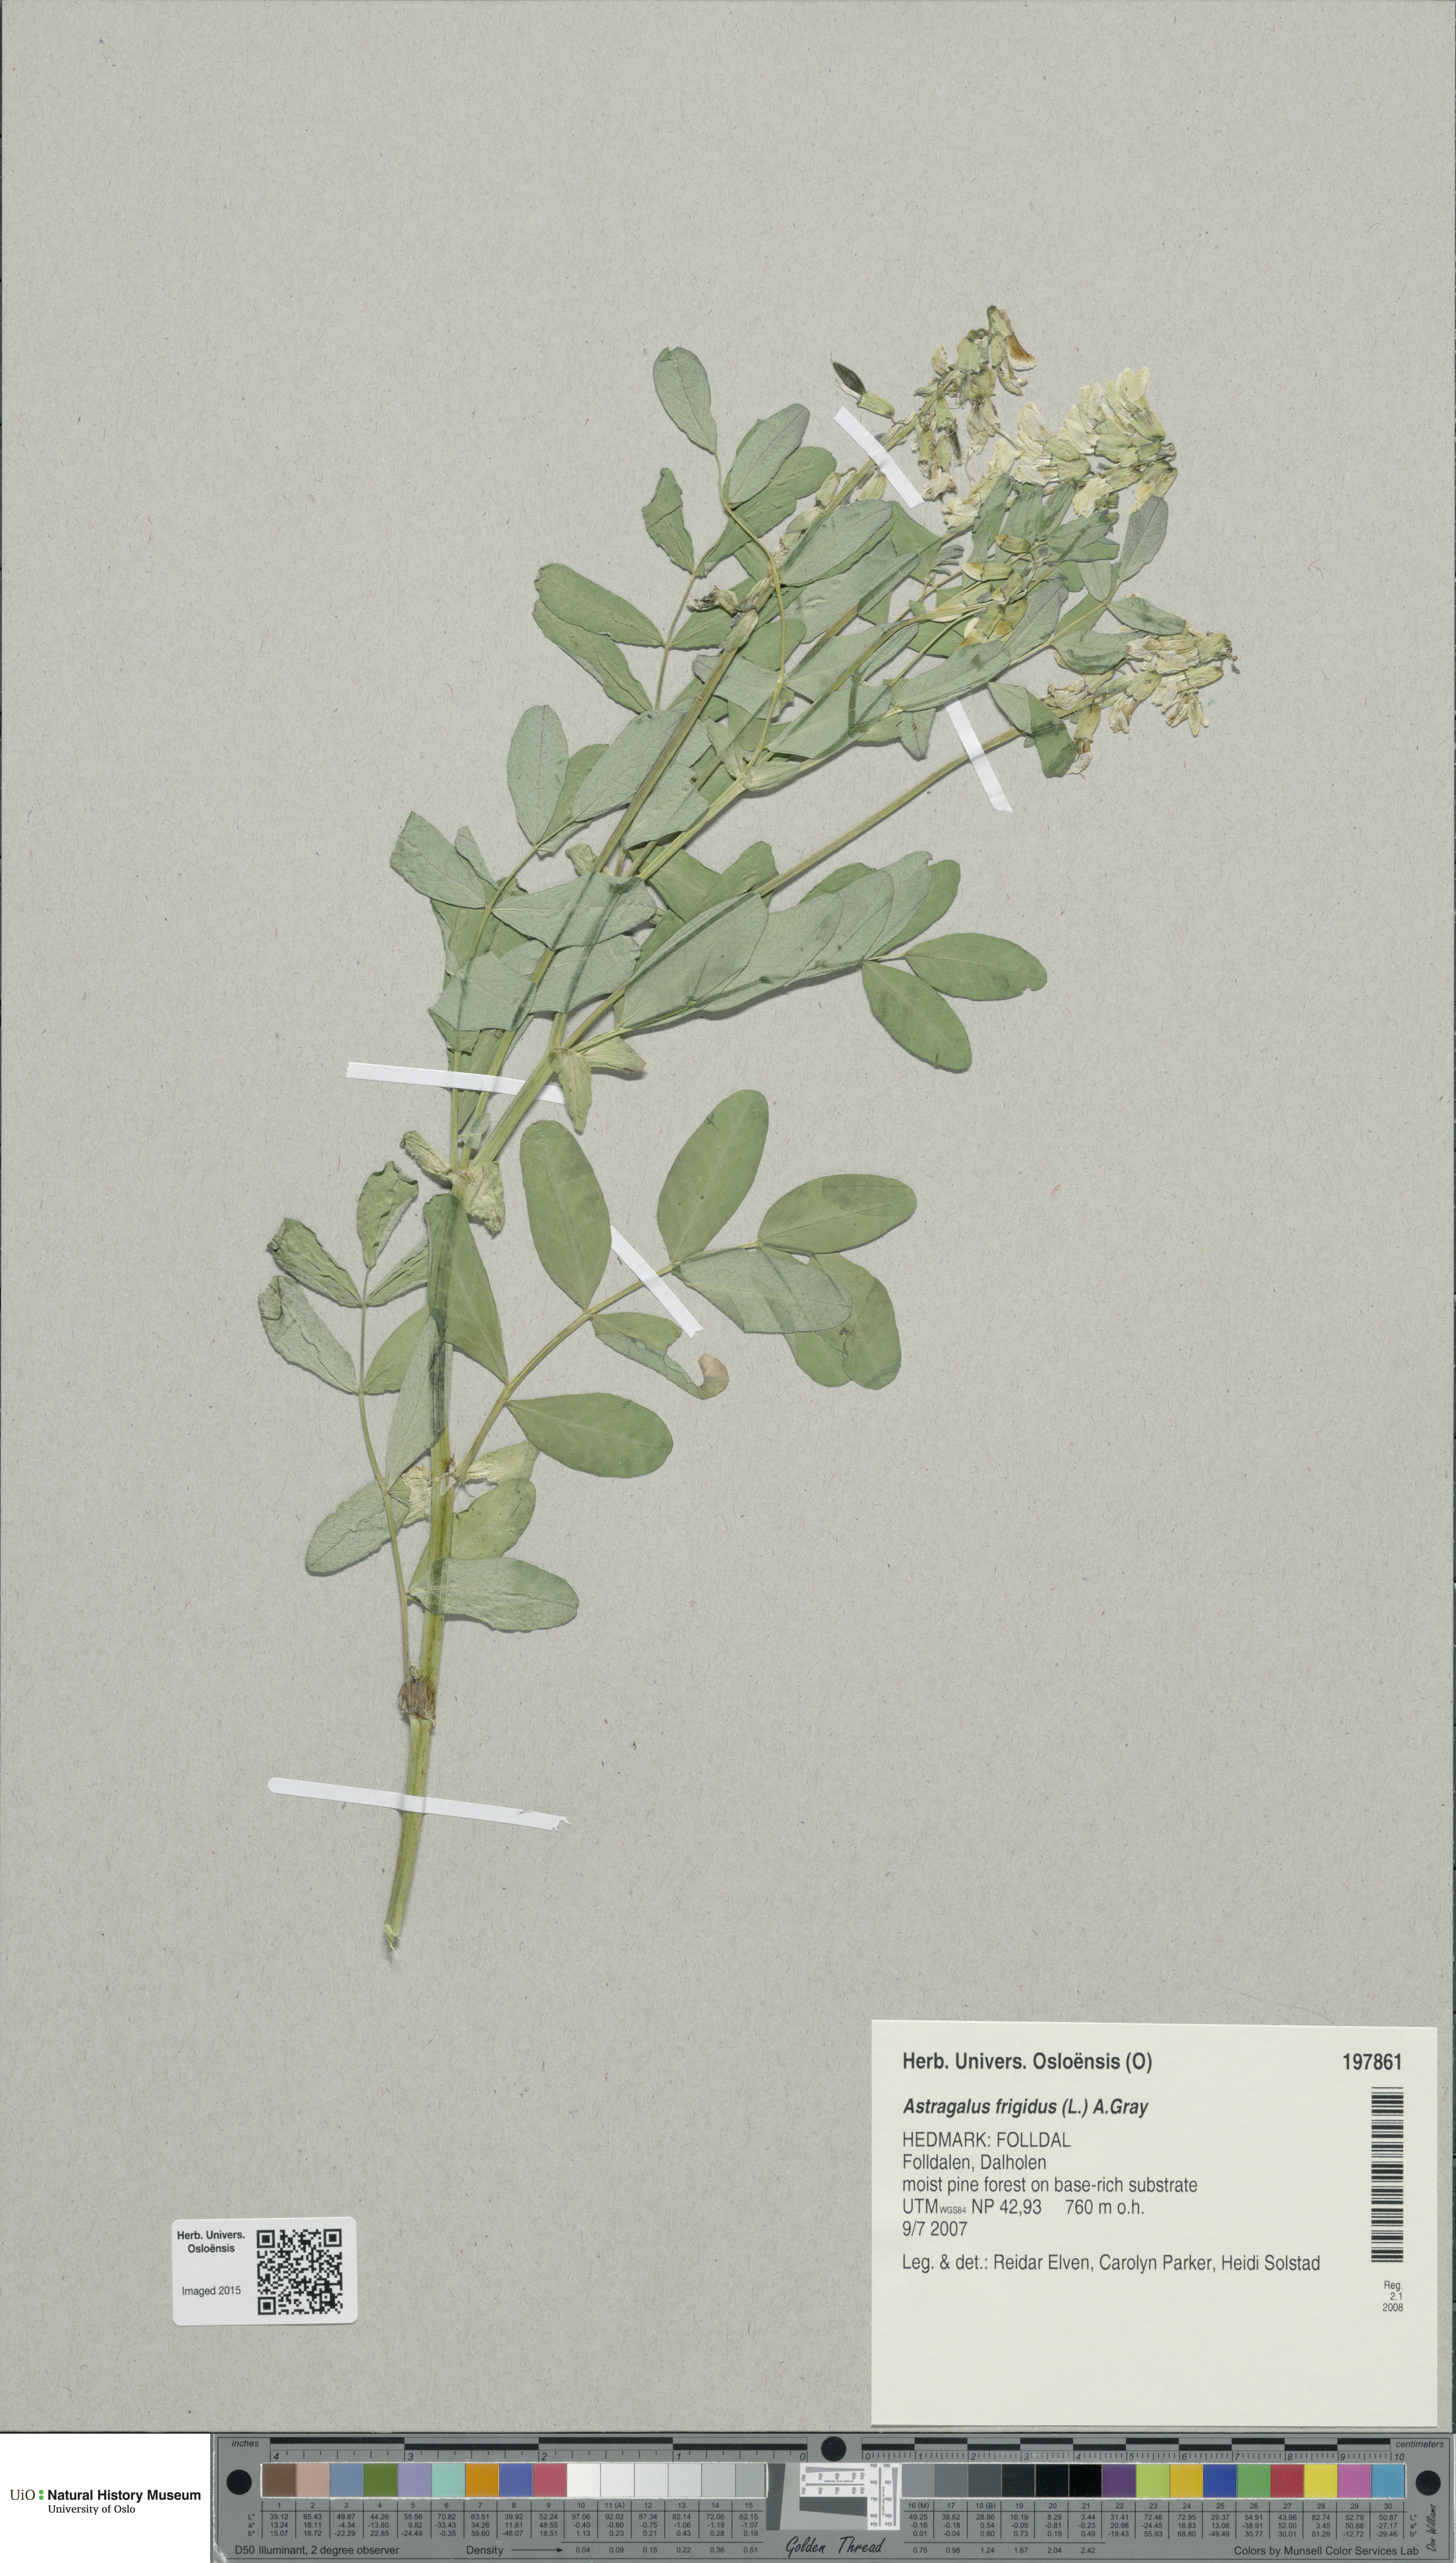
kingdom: Plantae
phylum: Tracheophyta
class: Magnoliopsida
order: Fabales
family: Fabaceae
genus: Astragalus
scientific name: Astragalus frigidus
